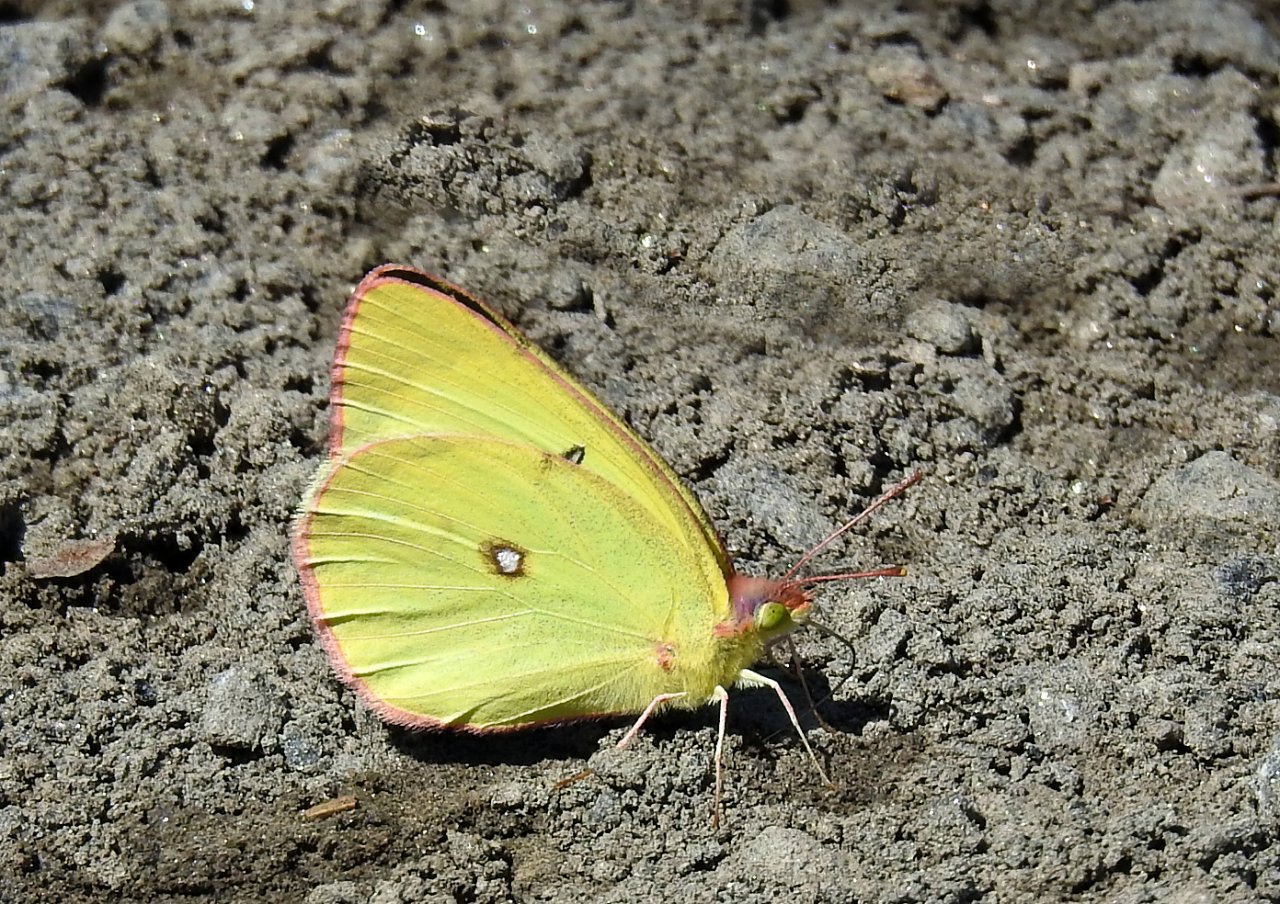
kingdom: Animalia
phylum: Arthropoda
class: Insecta
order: Lepidoptera
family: Pieridae
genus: Colias
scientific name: Colias interior
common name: Pink-edged Sulphur
